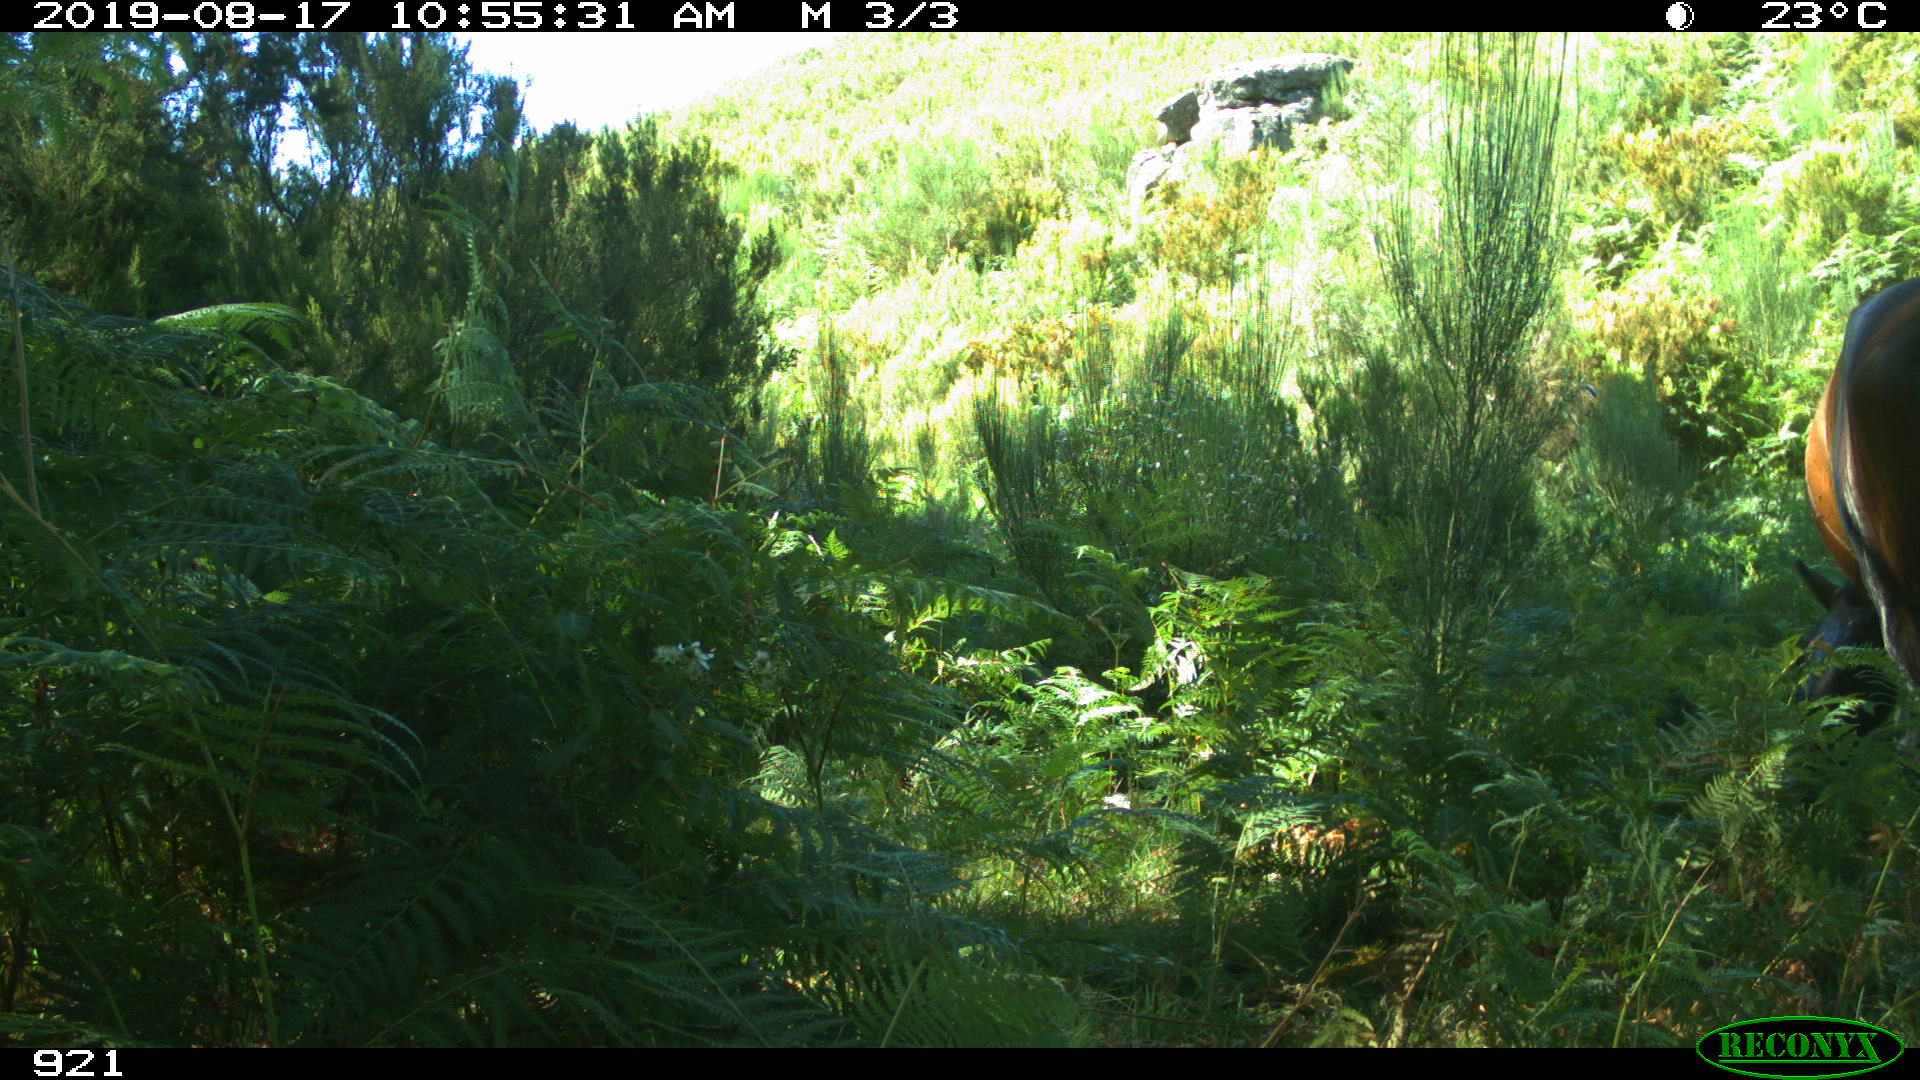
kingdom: Animalia
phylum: Chordata
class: Mammalia
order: Perissodactyla
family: Equidae
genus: Equus
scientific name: Equus caballus
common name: Horse
